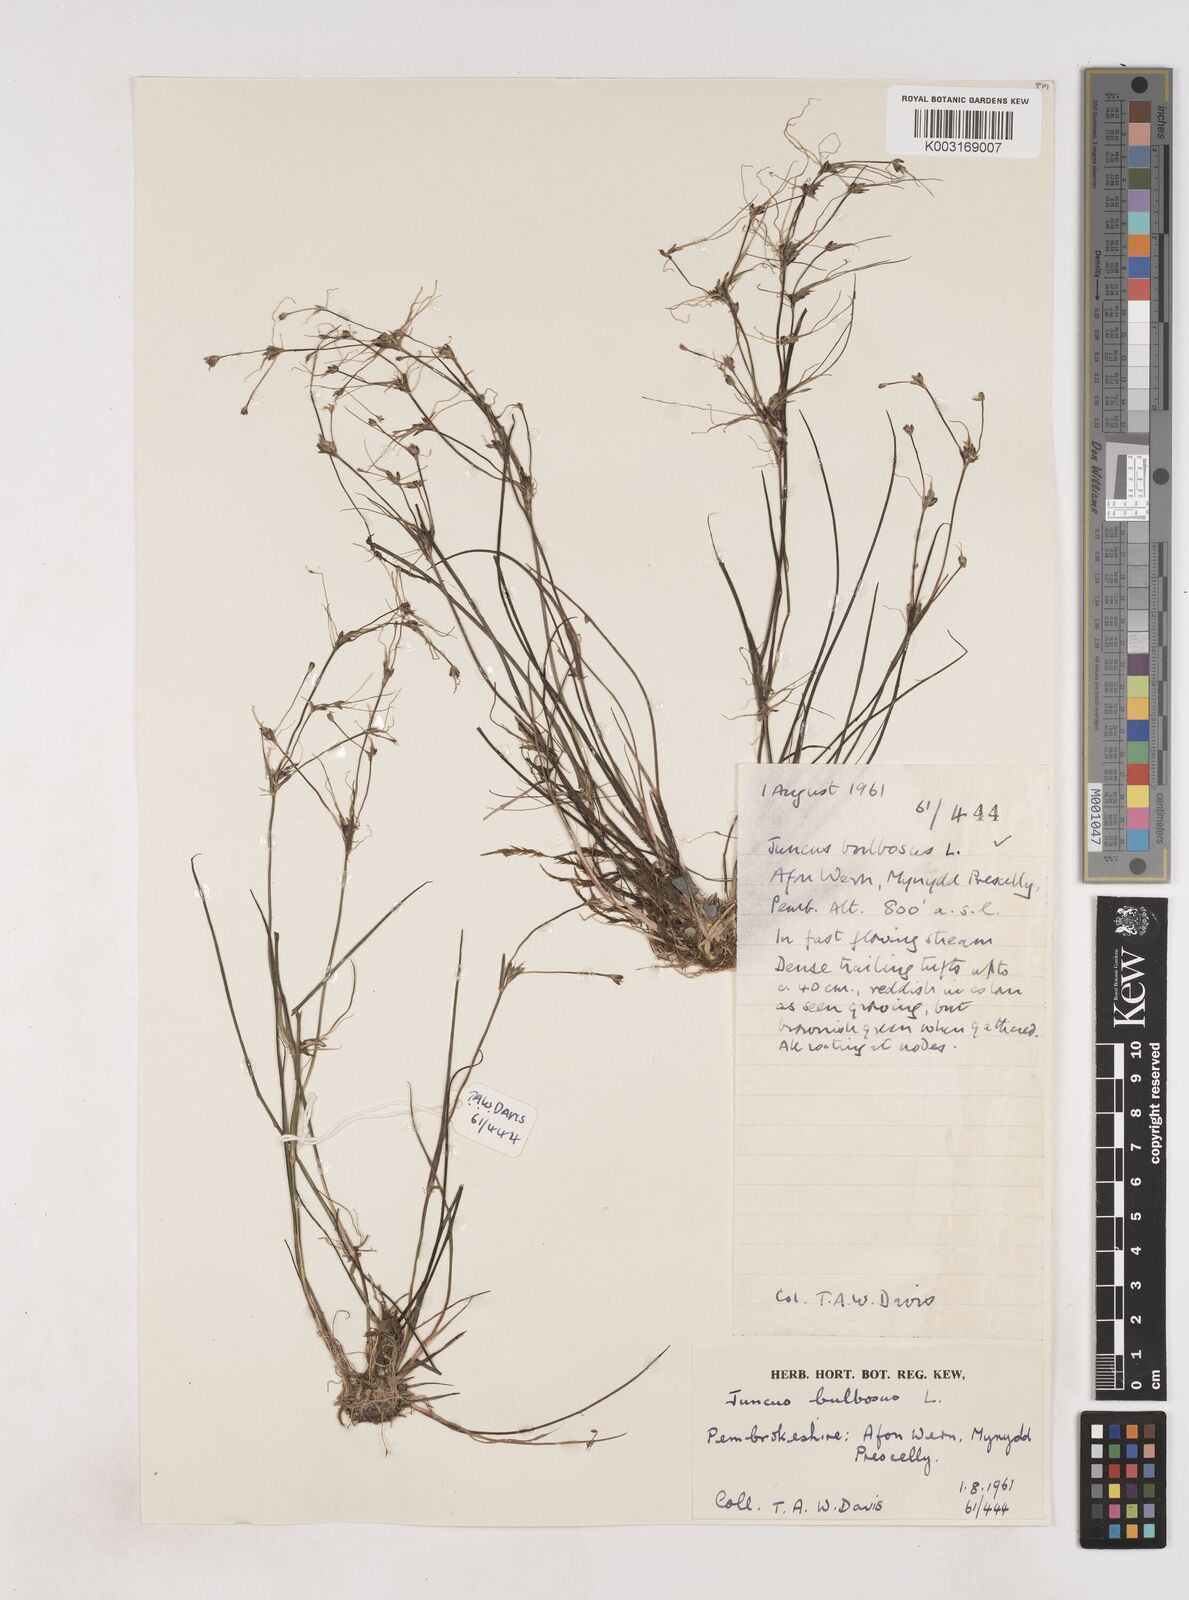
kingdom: Plantae
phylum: Tracheophyta
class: Liliopsida
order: Poales
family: Juncaceae
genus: Juncus
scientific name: Juncus bulbosus
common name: Bulbous rush
